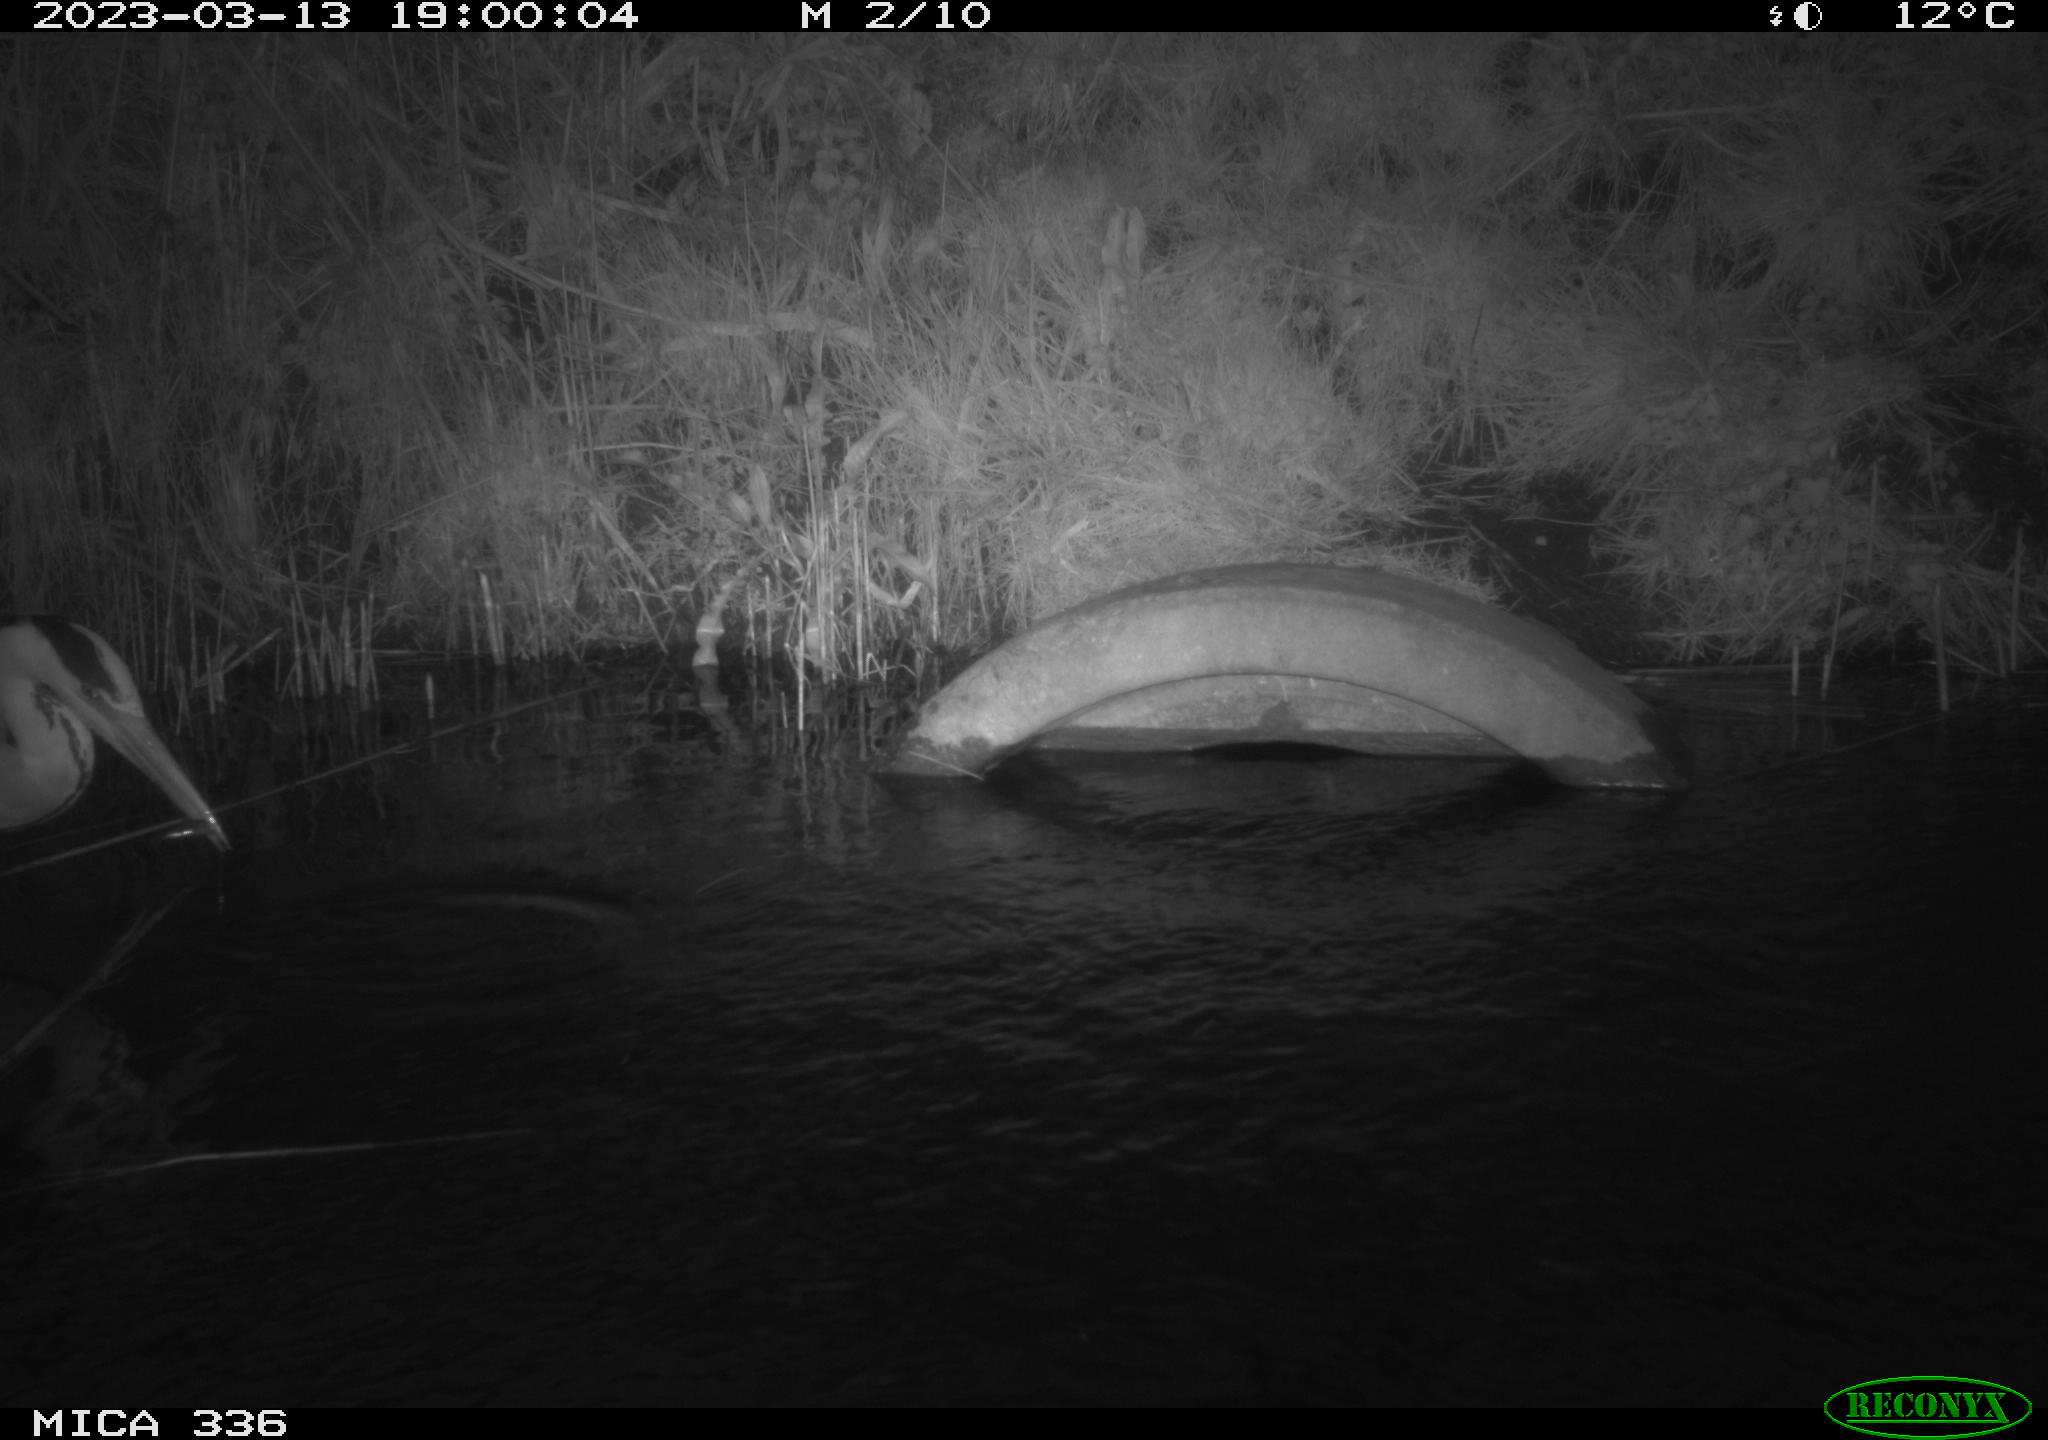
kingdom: Animalia
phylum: Chordata
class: Aves
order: Pelecaniformes
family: Ardeidae
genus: Ardea
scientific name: Ardea cinerea
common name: Grey heron
